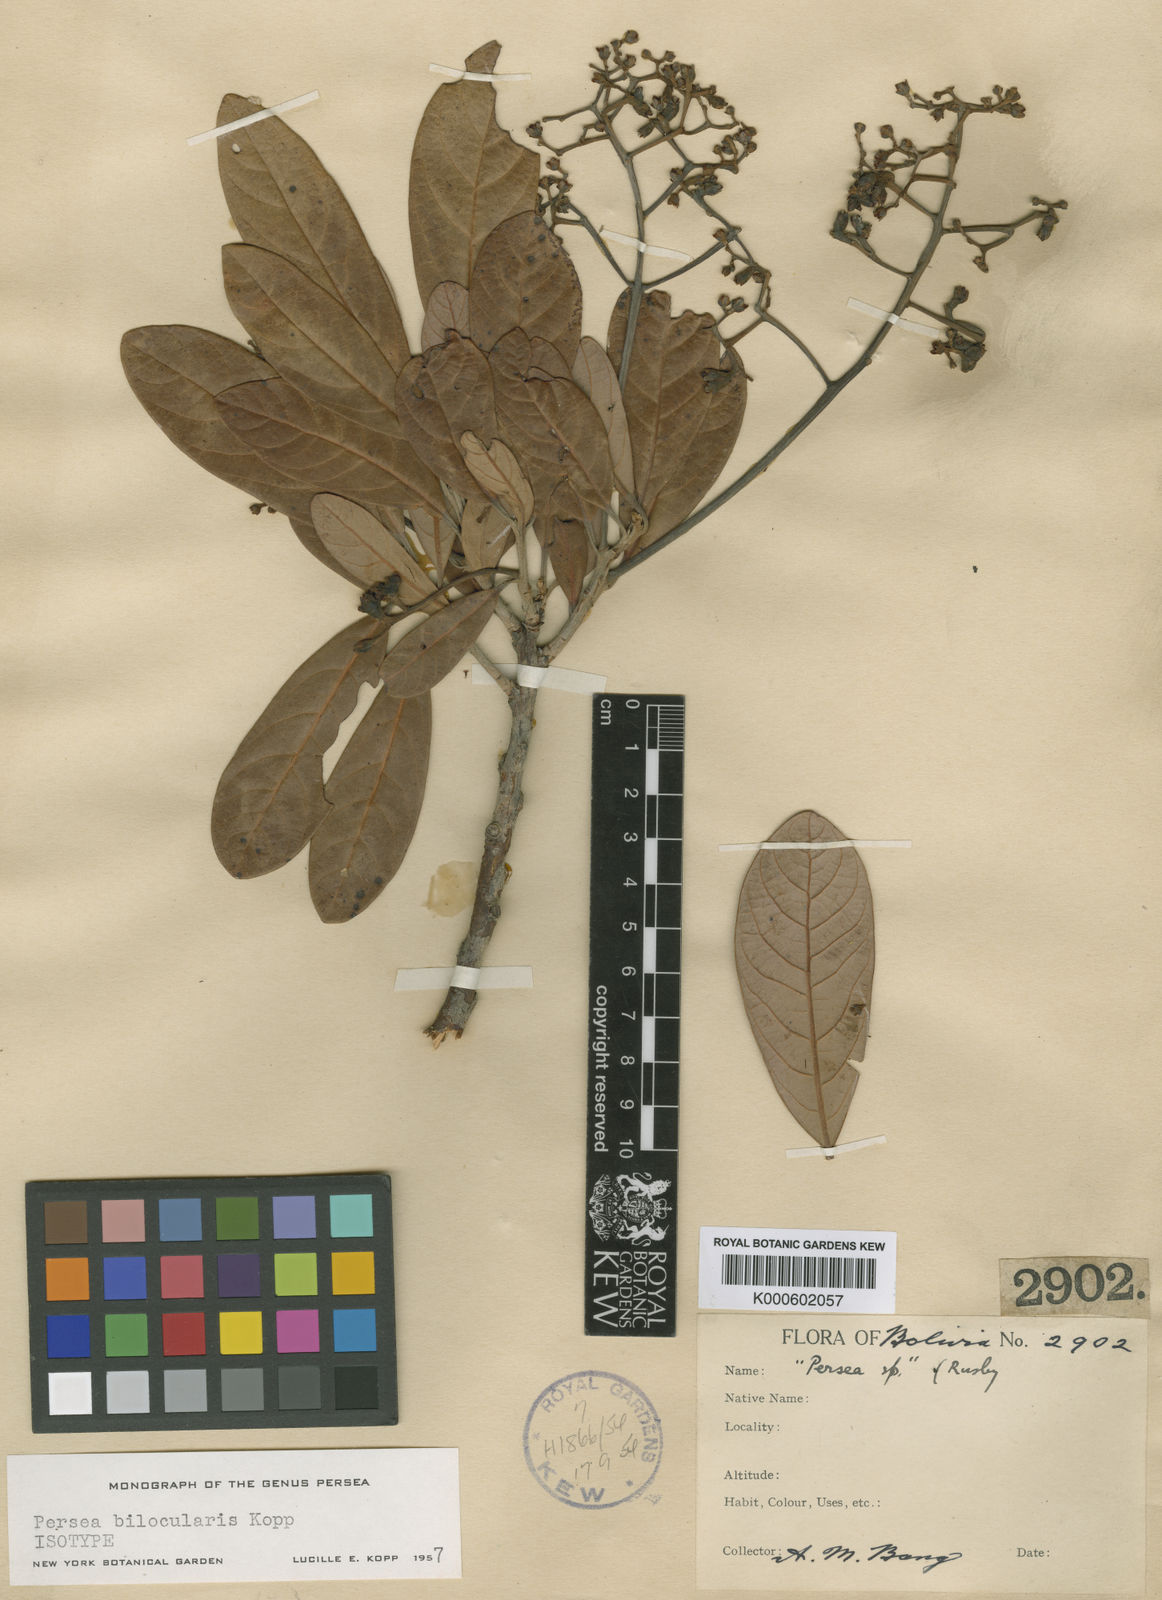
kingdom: Plantae
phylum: Tracheophyta
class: Magnoliopsida
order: Laurales
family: Lauraceae
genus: Persea
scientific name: Persea bilocularis
